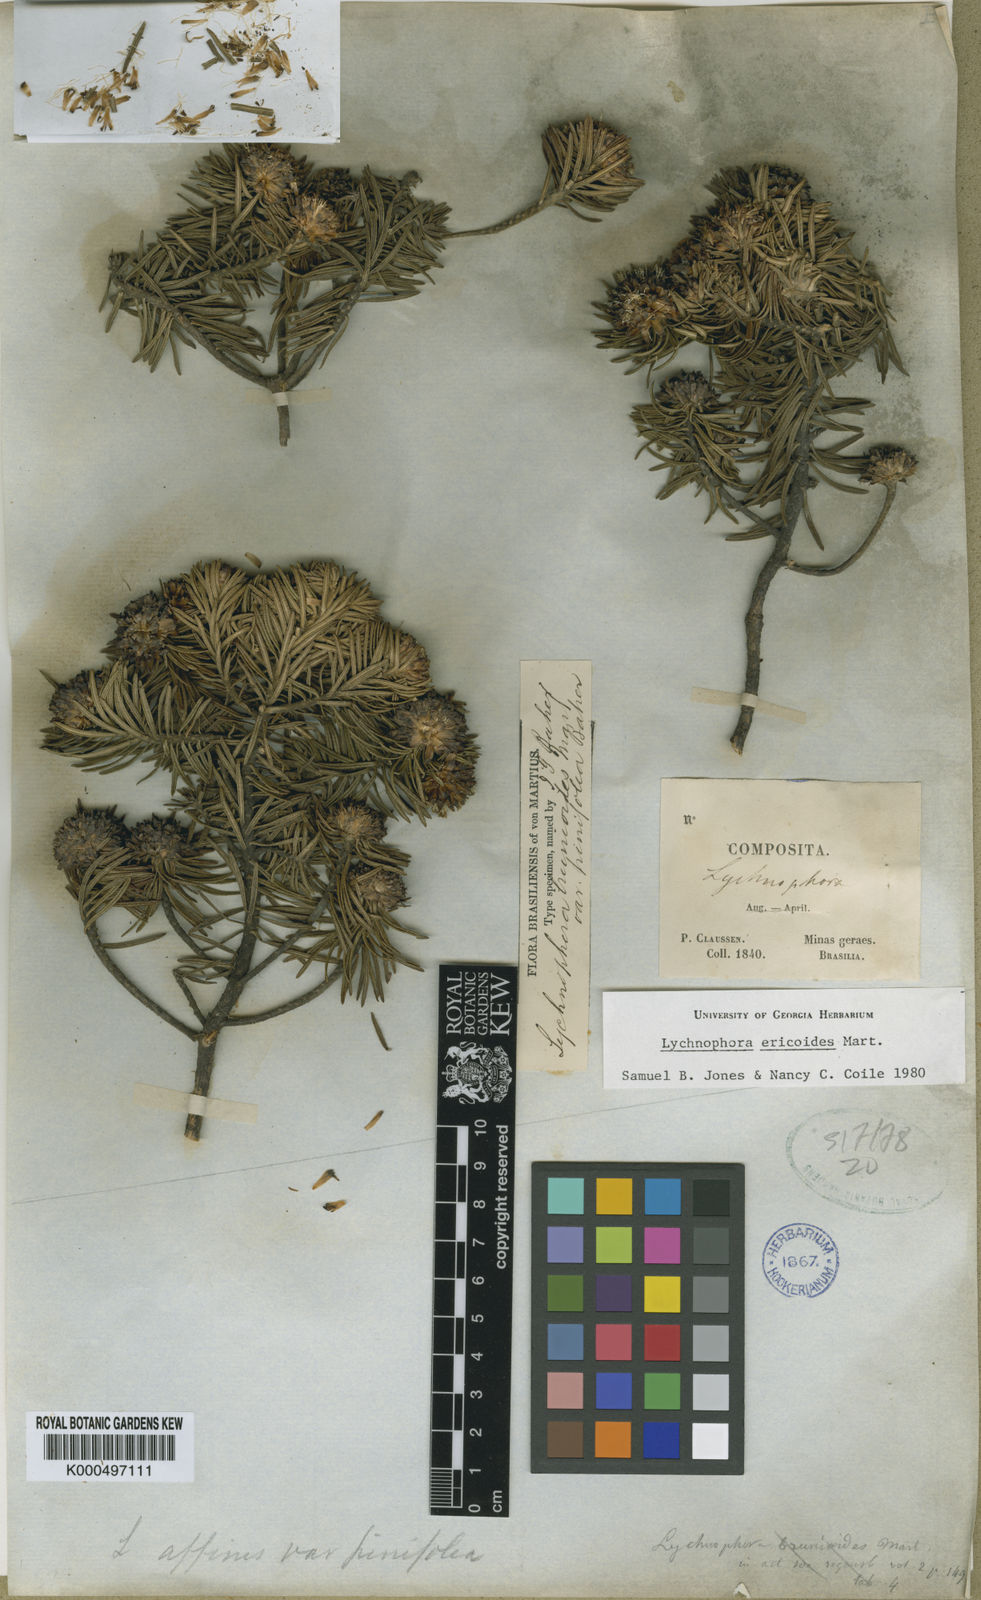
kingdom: Plantae
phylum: Tracheophyta
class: Magnoliopsida
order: Asterales
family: Asteraceae
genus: Lychnophora
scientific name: Lychnophora ericoides
